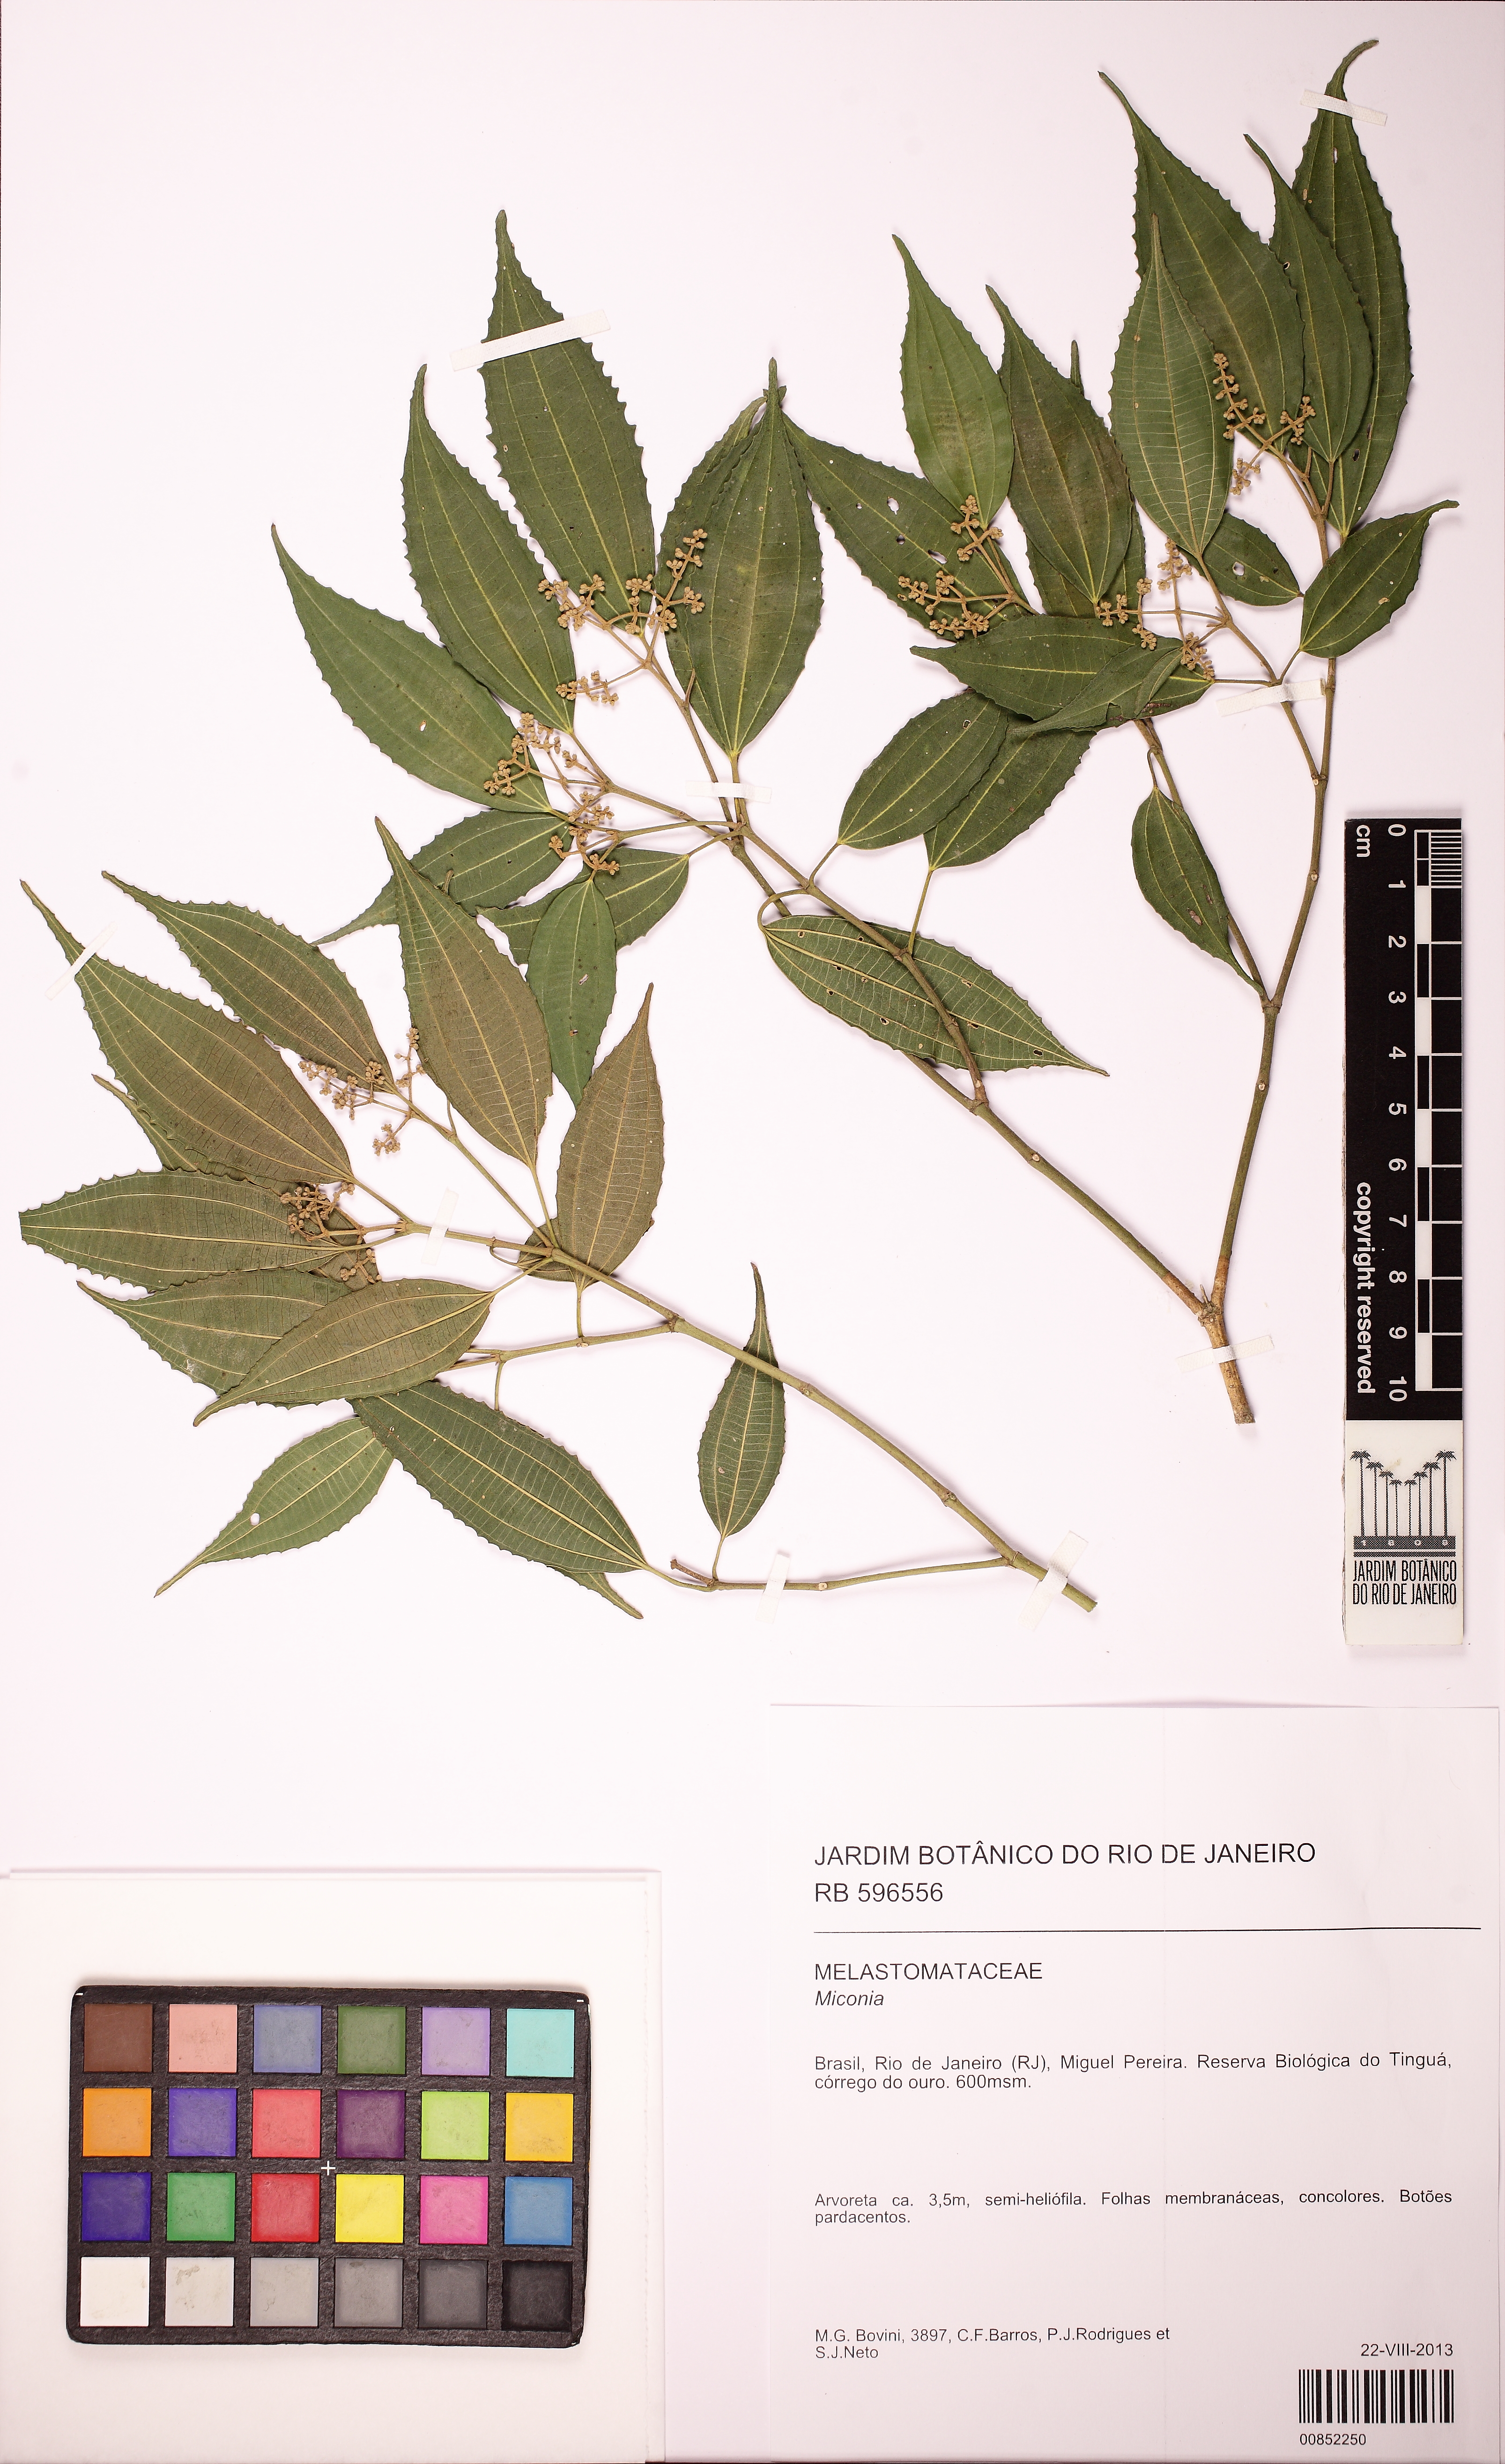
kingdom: Plantae
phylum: Tracheophyta
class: Magnoliopsida
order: Myrtales
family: Melastomataceae
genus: Miconia
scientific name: Miconia
